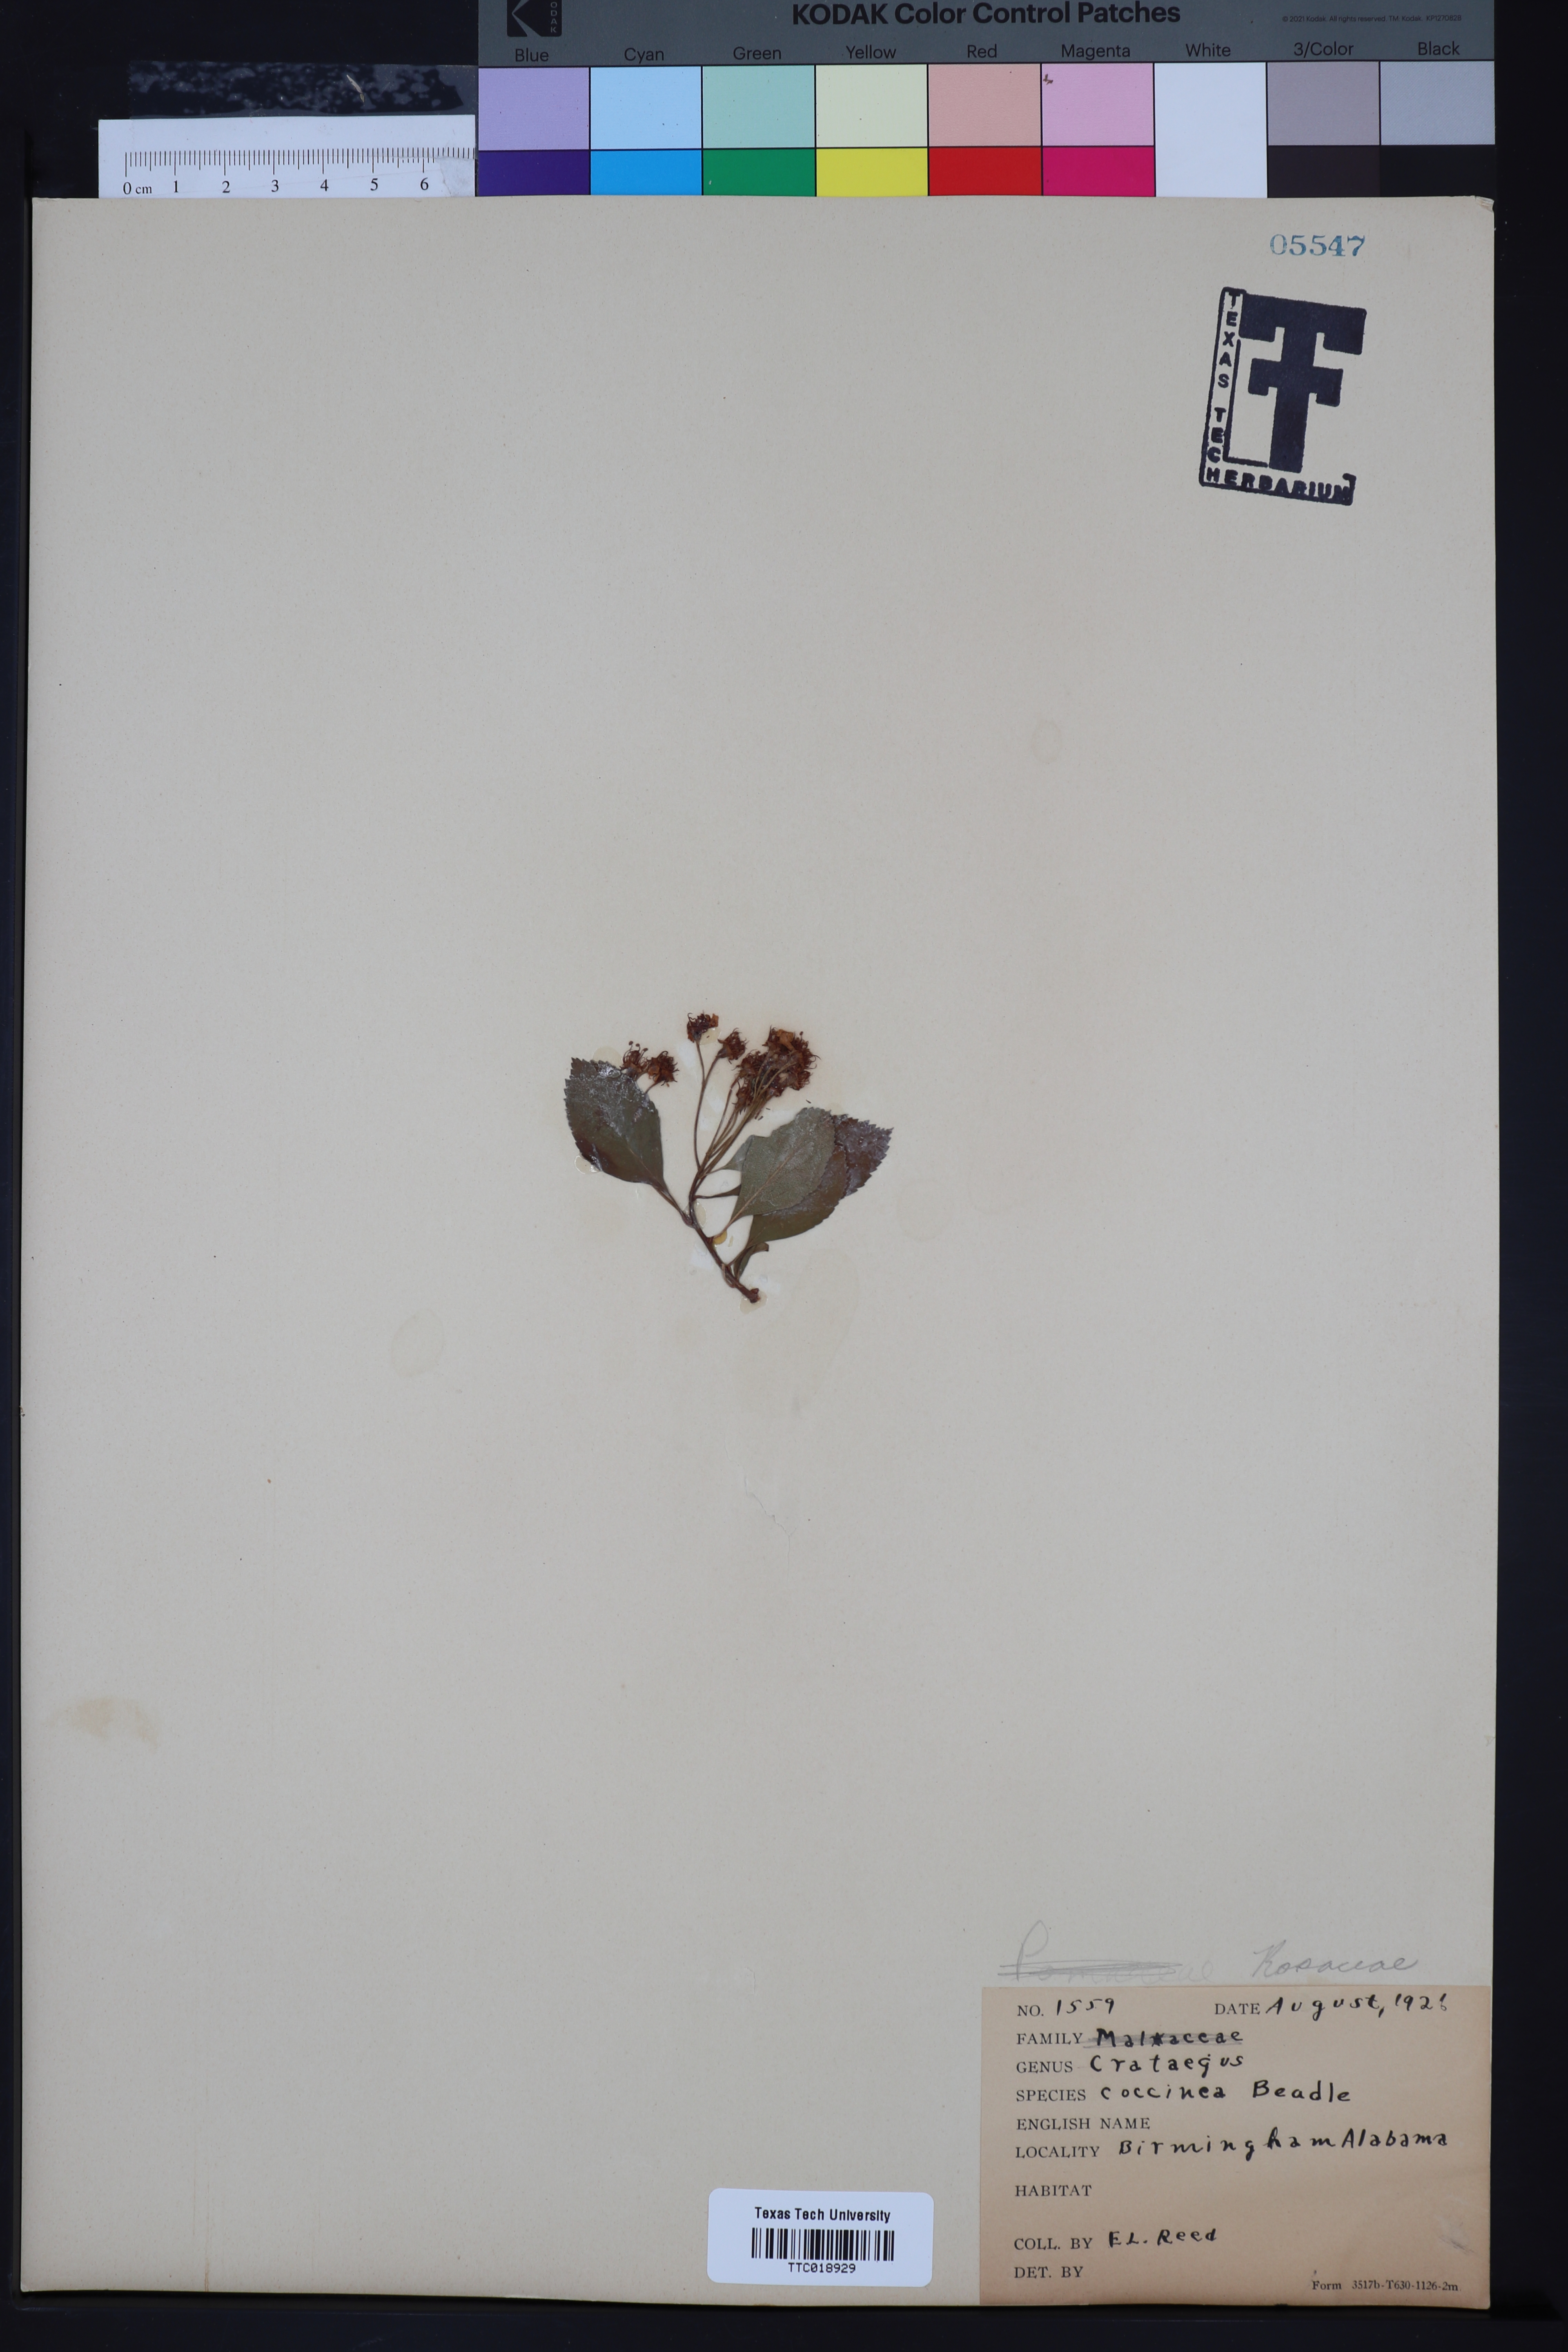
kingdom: Plantae
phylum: Tracheophyta
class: Magnoliopsida
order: Rosales
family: Rosaceae
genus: Crataegus
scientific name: Crataegus coccinea
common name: Scarlet hawthorn
